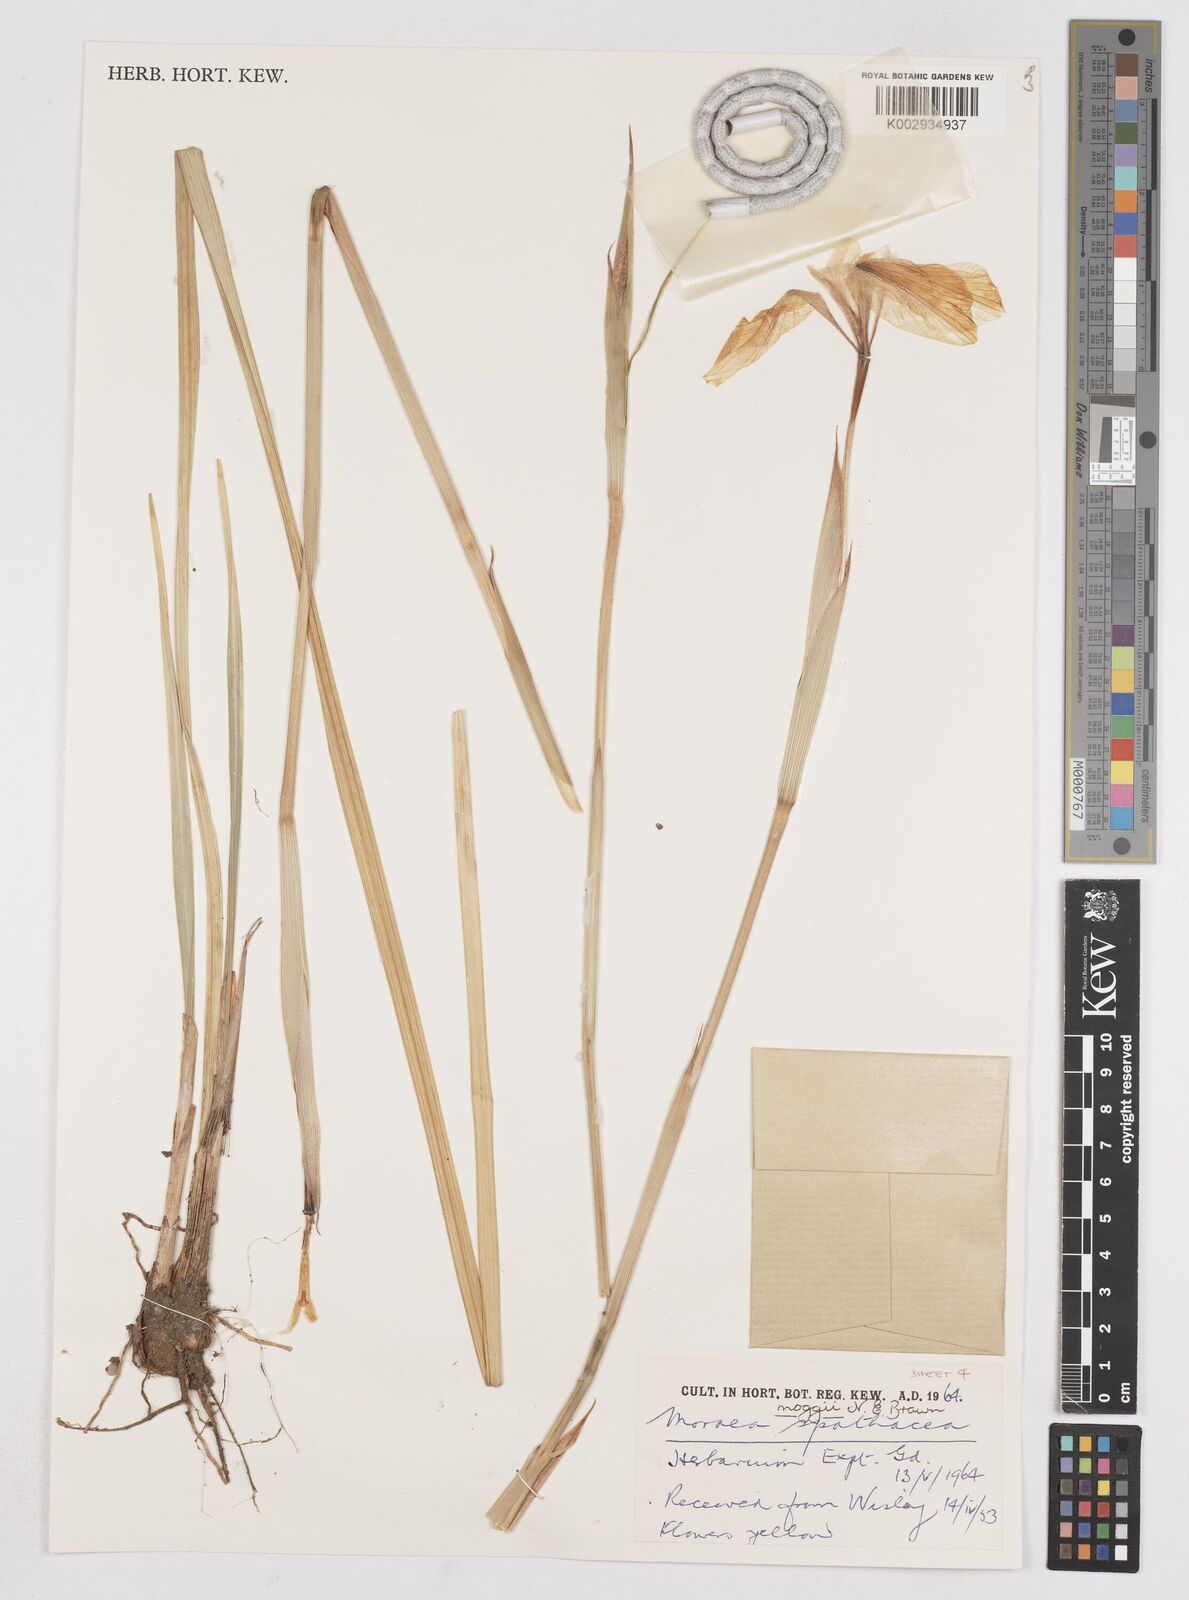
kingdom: Plantae
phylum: Tracheophyta
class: Liliopsida
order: Asparagales
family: Iridaceae
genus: Moraea
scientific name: Moraea moggii
